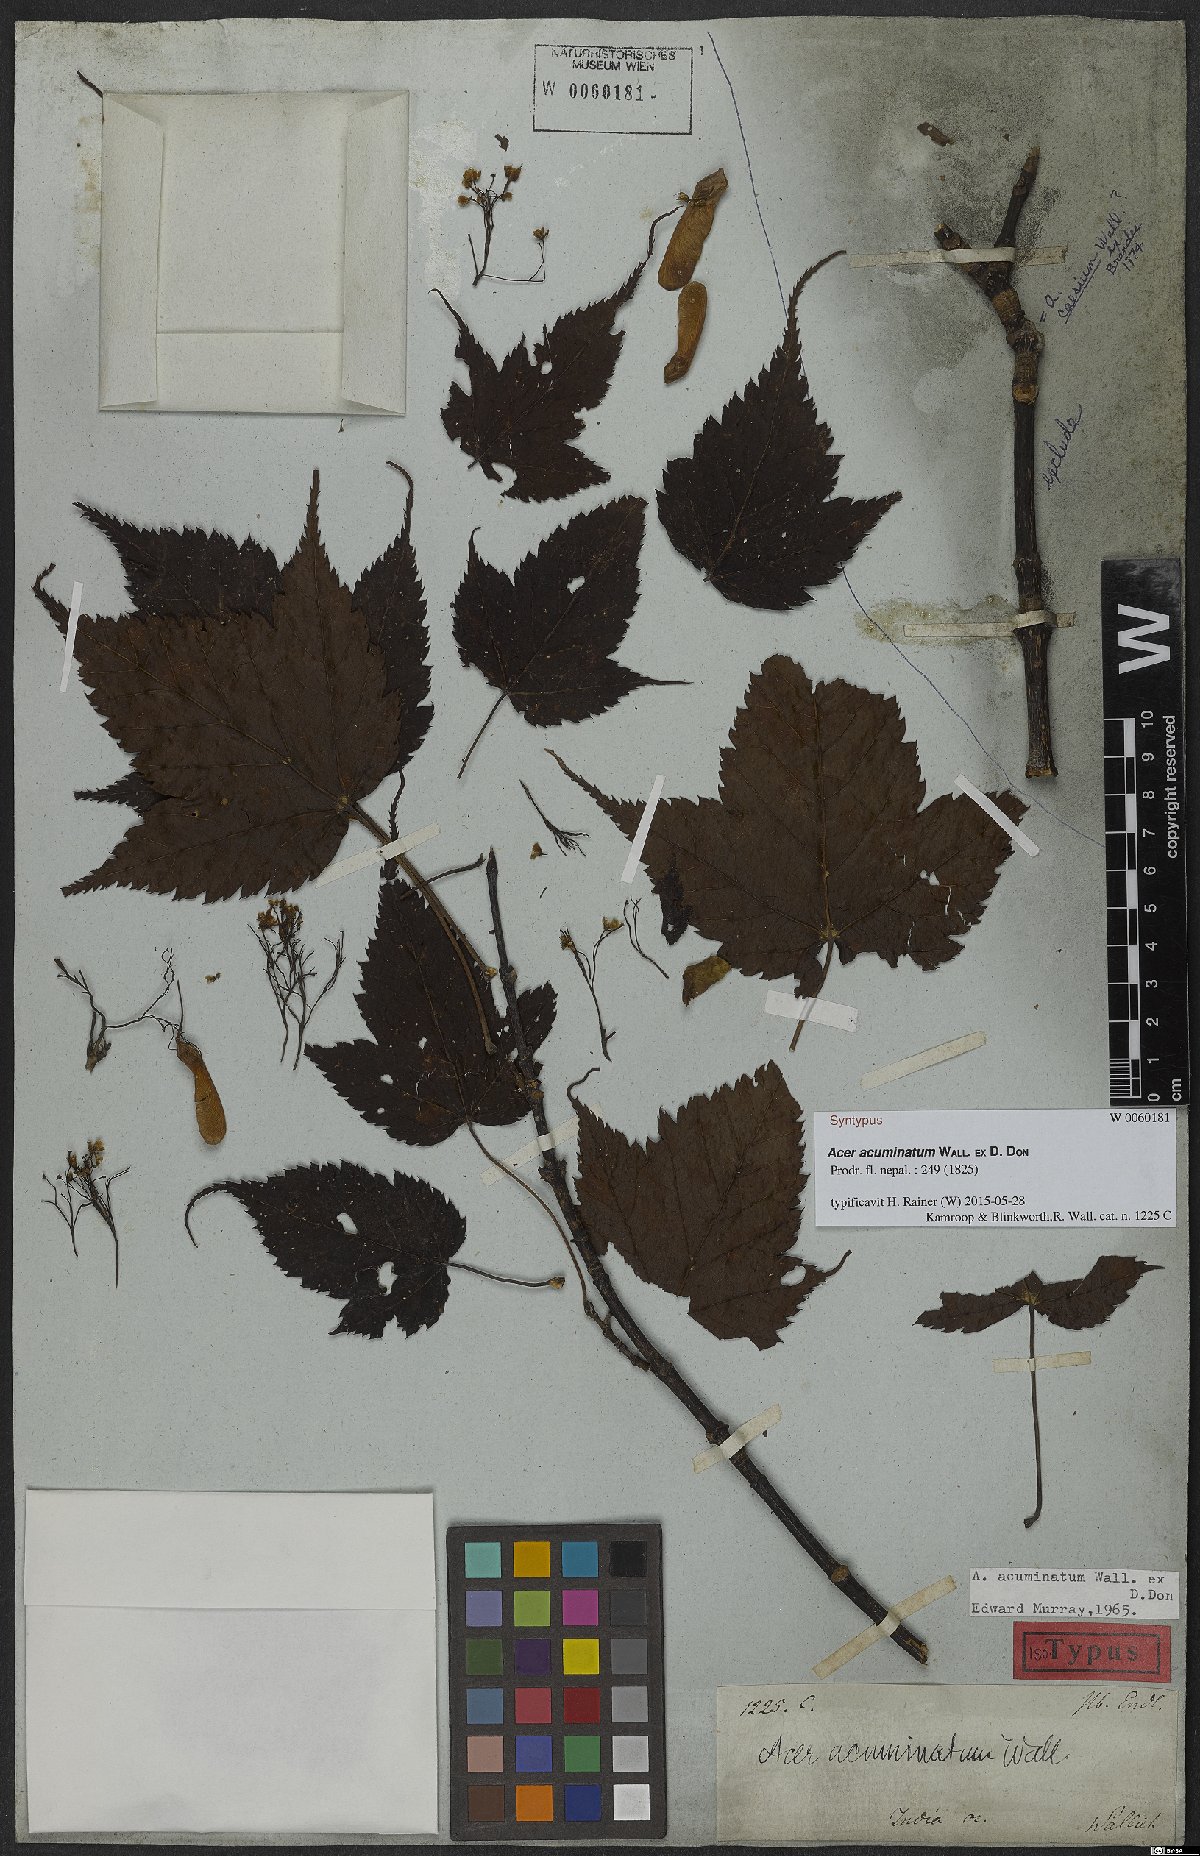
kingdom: Plantae
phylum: Tracheophyta
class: Magnoliopsida
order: Sapindales
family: Sapindaceae
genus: Acer
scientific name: Acer acuminatum
